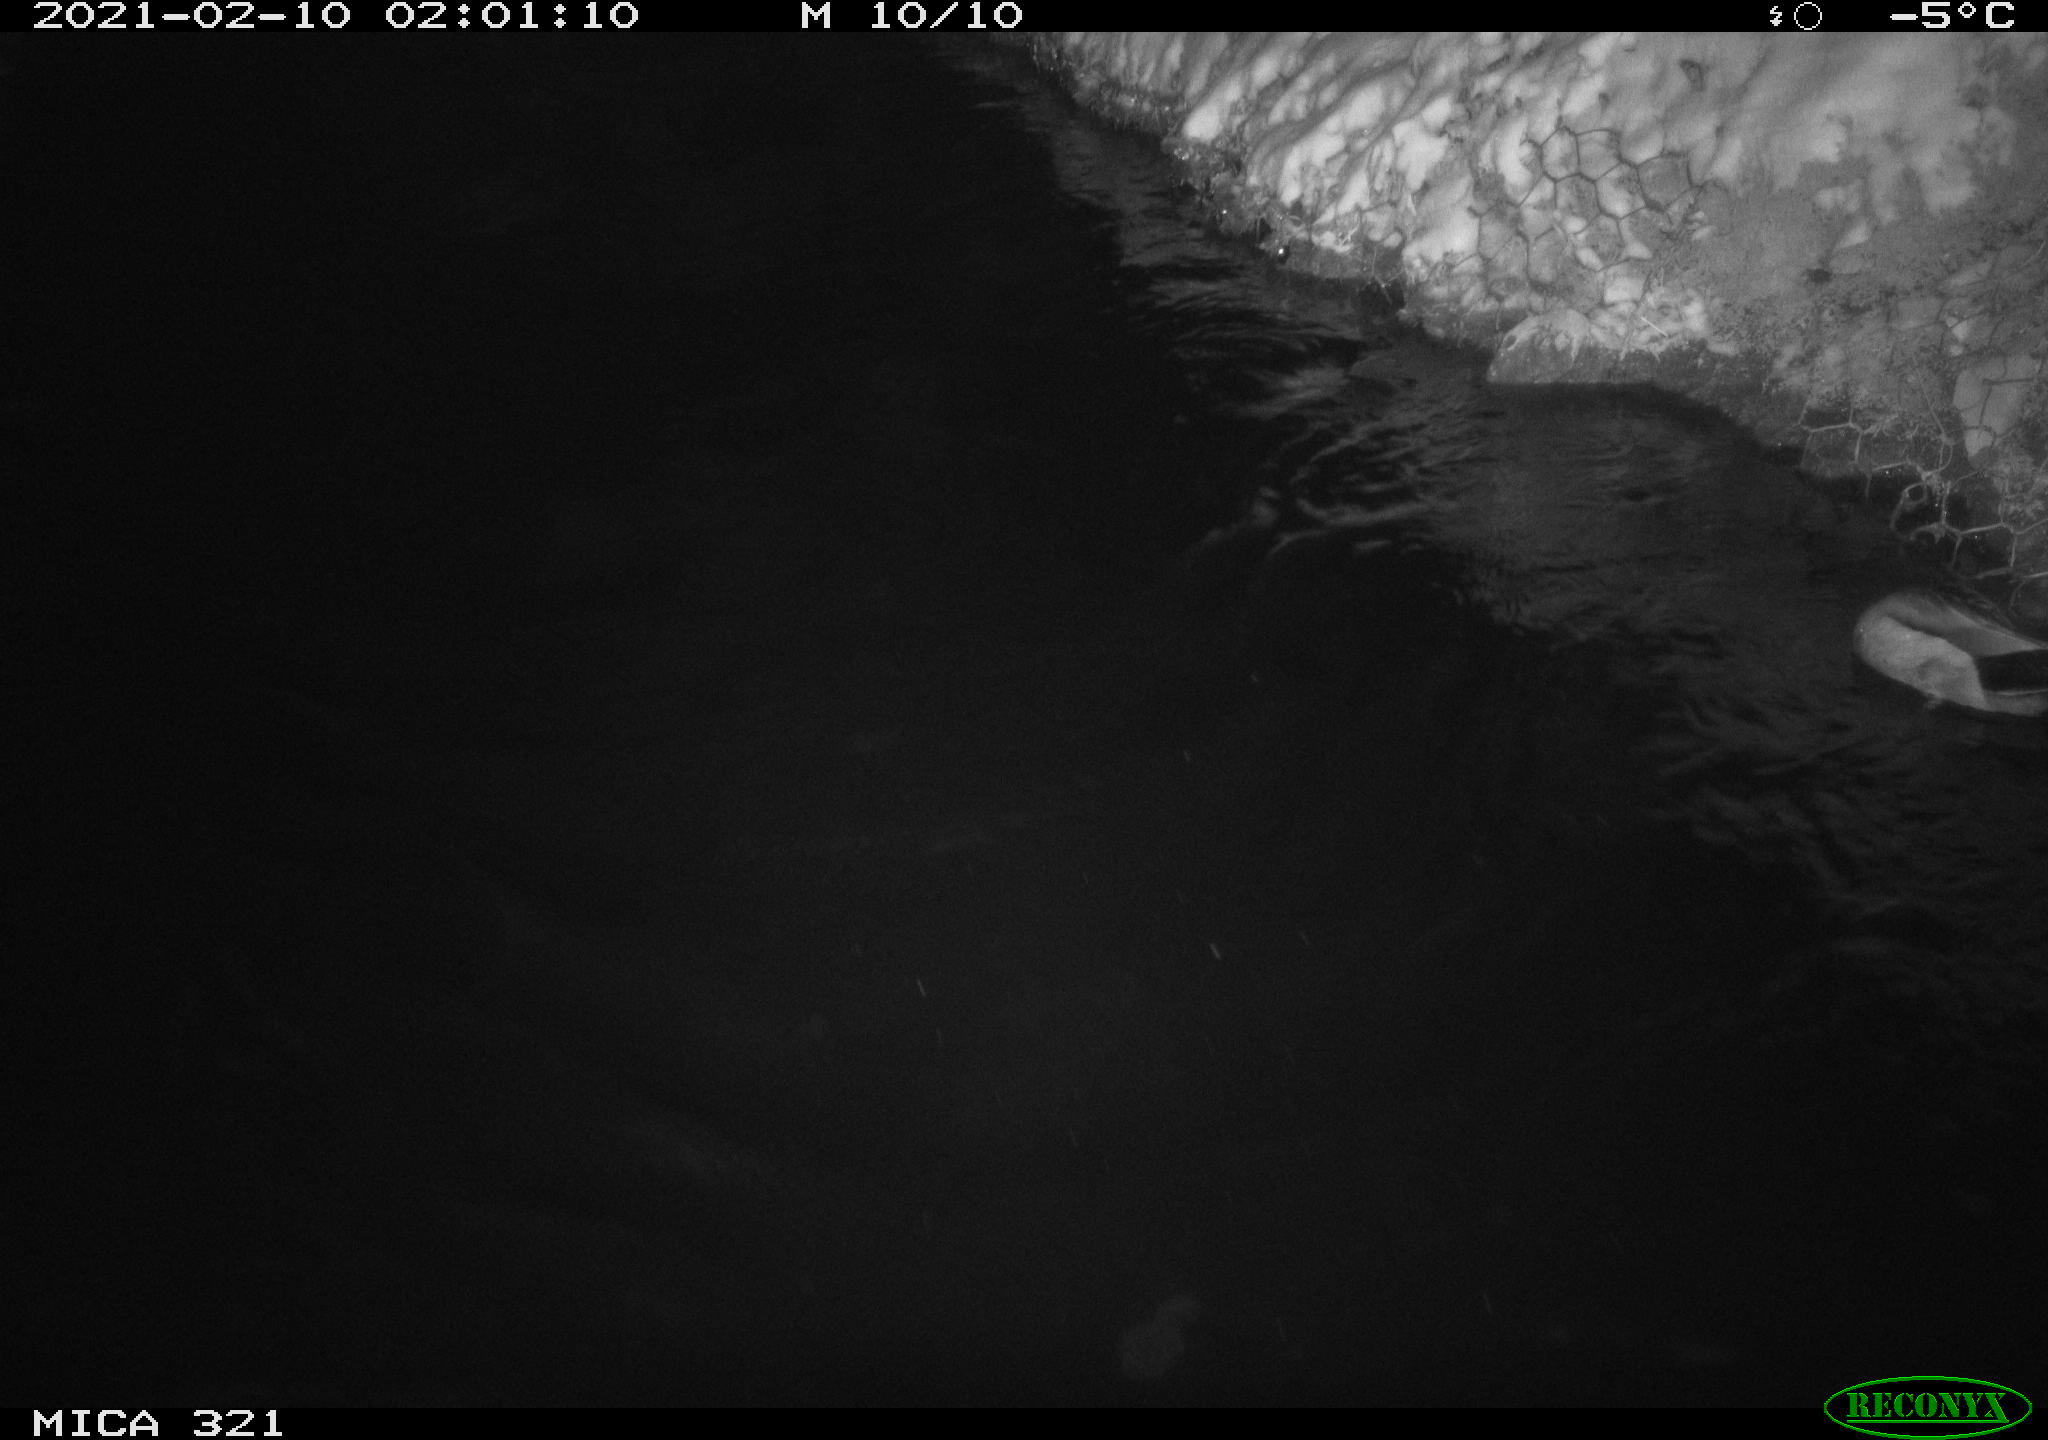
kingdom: Animalia
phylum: Chordata
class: Aves
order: Anseriformes
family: Anatidae
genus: Anas
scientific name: Anas platyrhynchos
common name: Mallard
